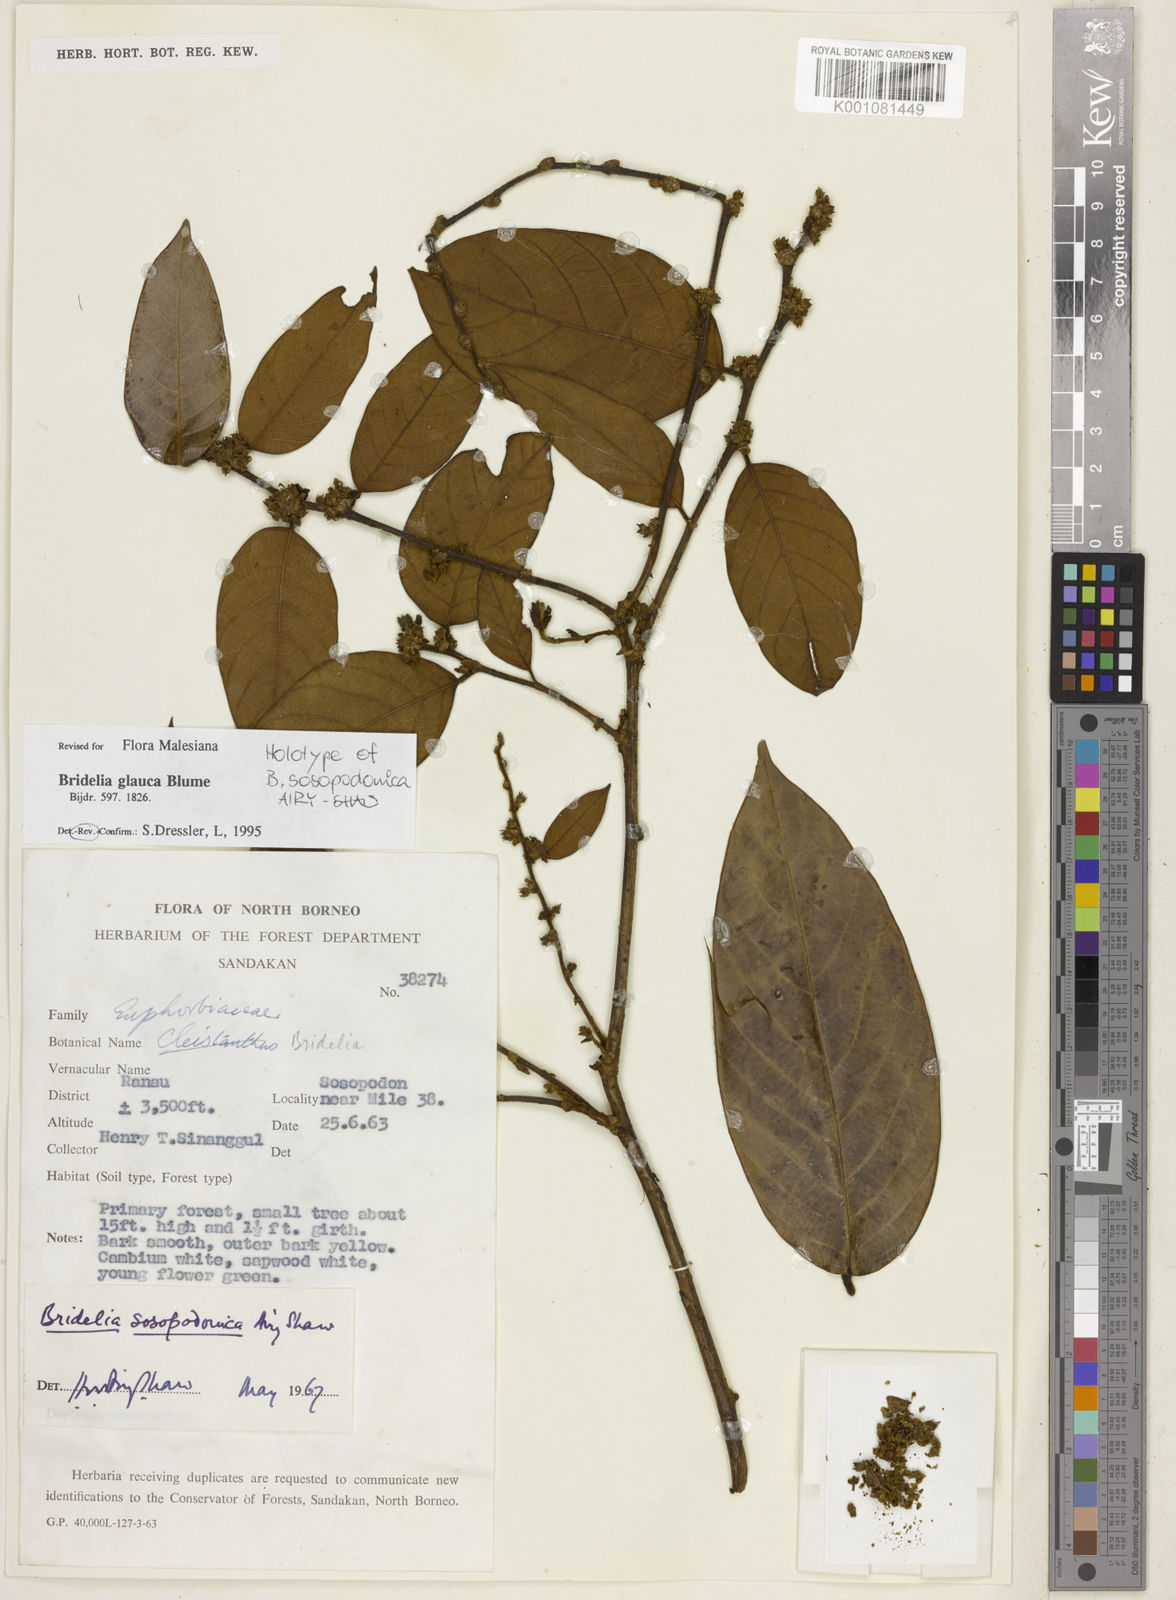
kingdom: Plantae
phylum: Tracheophyta
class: Magnoliopsida
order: Malpighiales
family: Phyllanthaceae
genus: Bridelia
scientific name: Bridelia glauca
